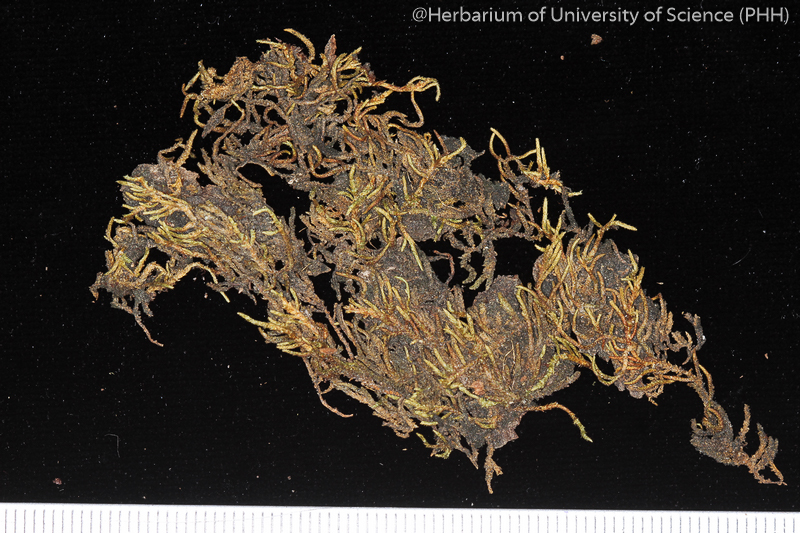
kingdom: Plantae
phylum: Bryophyta
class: Bryopsida
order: Hypnales
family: Entodontaceae
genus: Erythrodontium
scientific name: Erythrodontium julaceum
